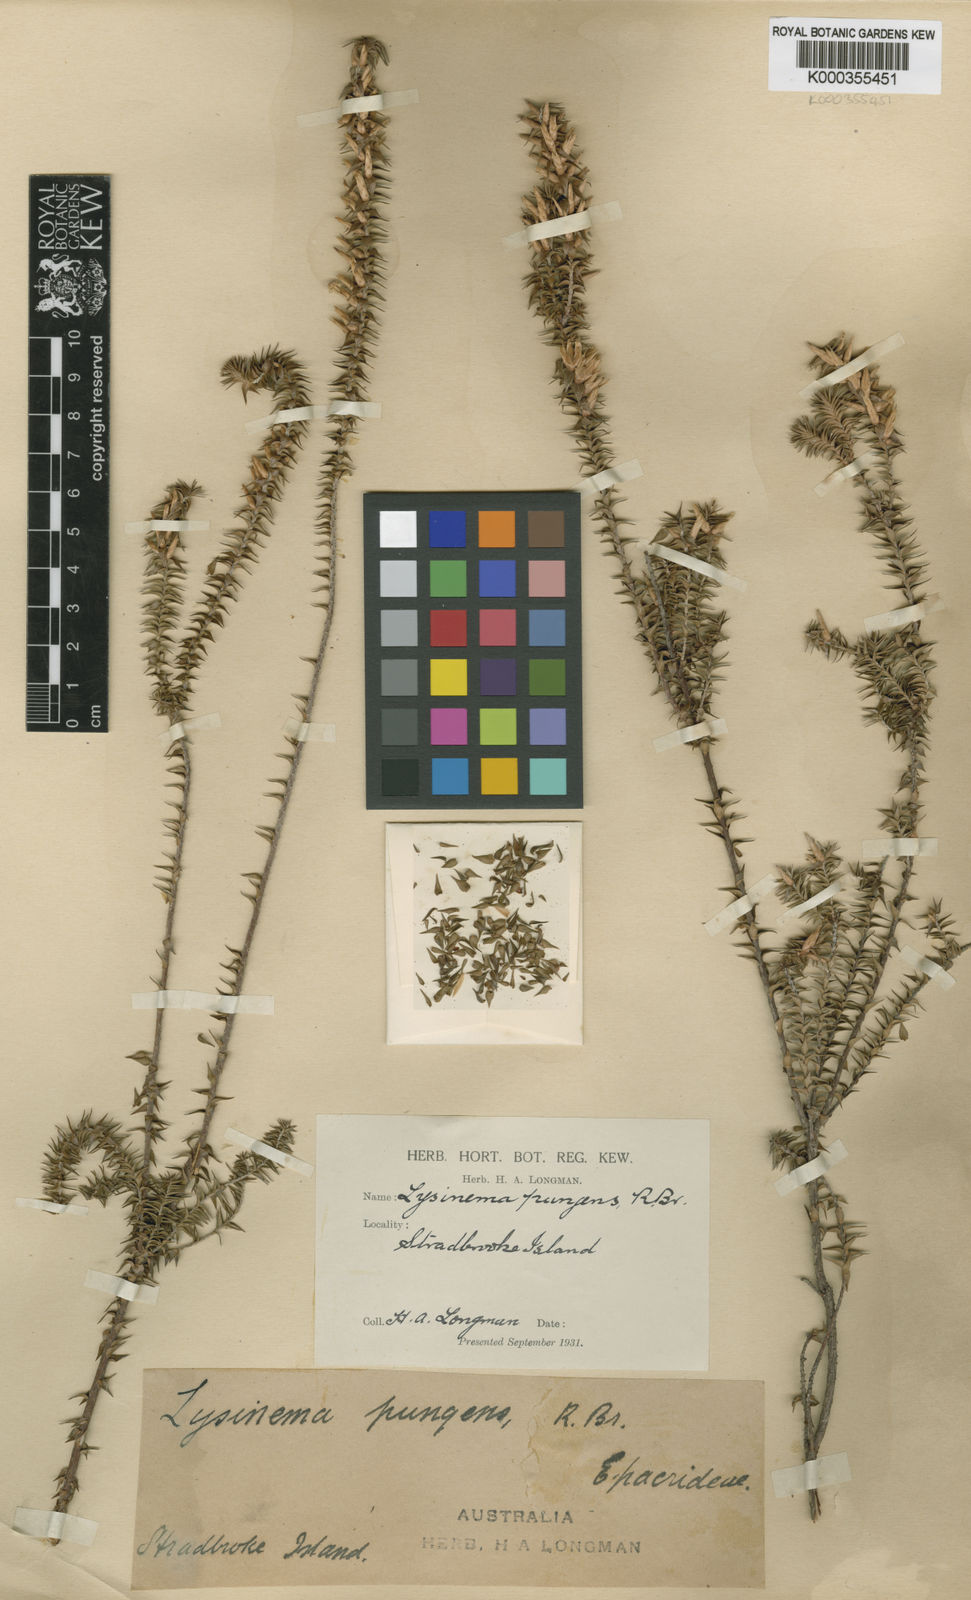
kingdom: Plantae
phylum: Tracheophyta
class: Magnoliopsida
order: Ericales
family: Ericaceae
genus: Woollsia
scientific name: Woollsia pungens
